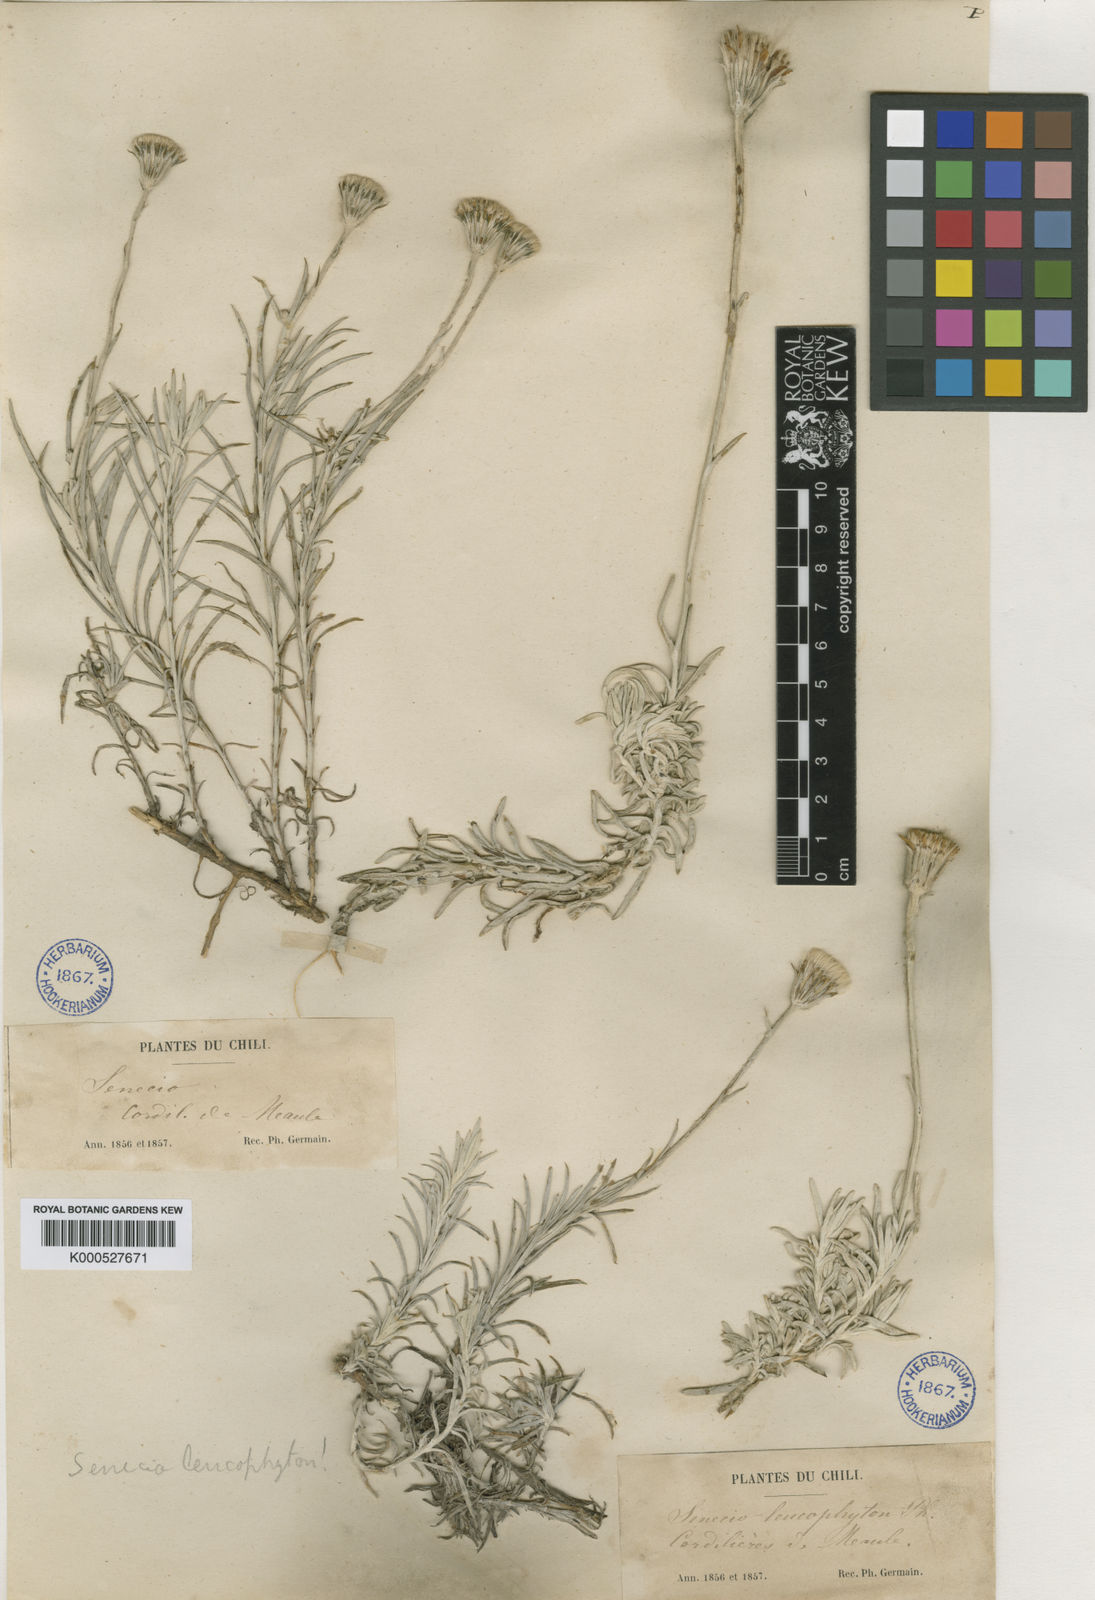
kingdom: Plantae
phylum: Tracheophyta
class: Magnoliopsida
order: Asterales
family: Asteraceae
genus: Senecio
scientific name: Senecio leucophyton
